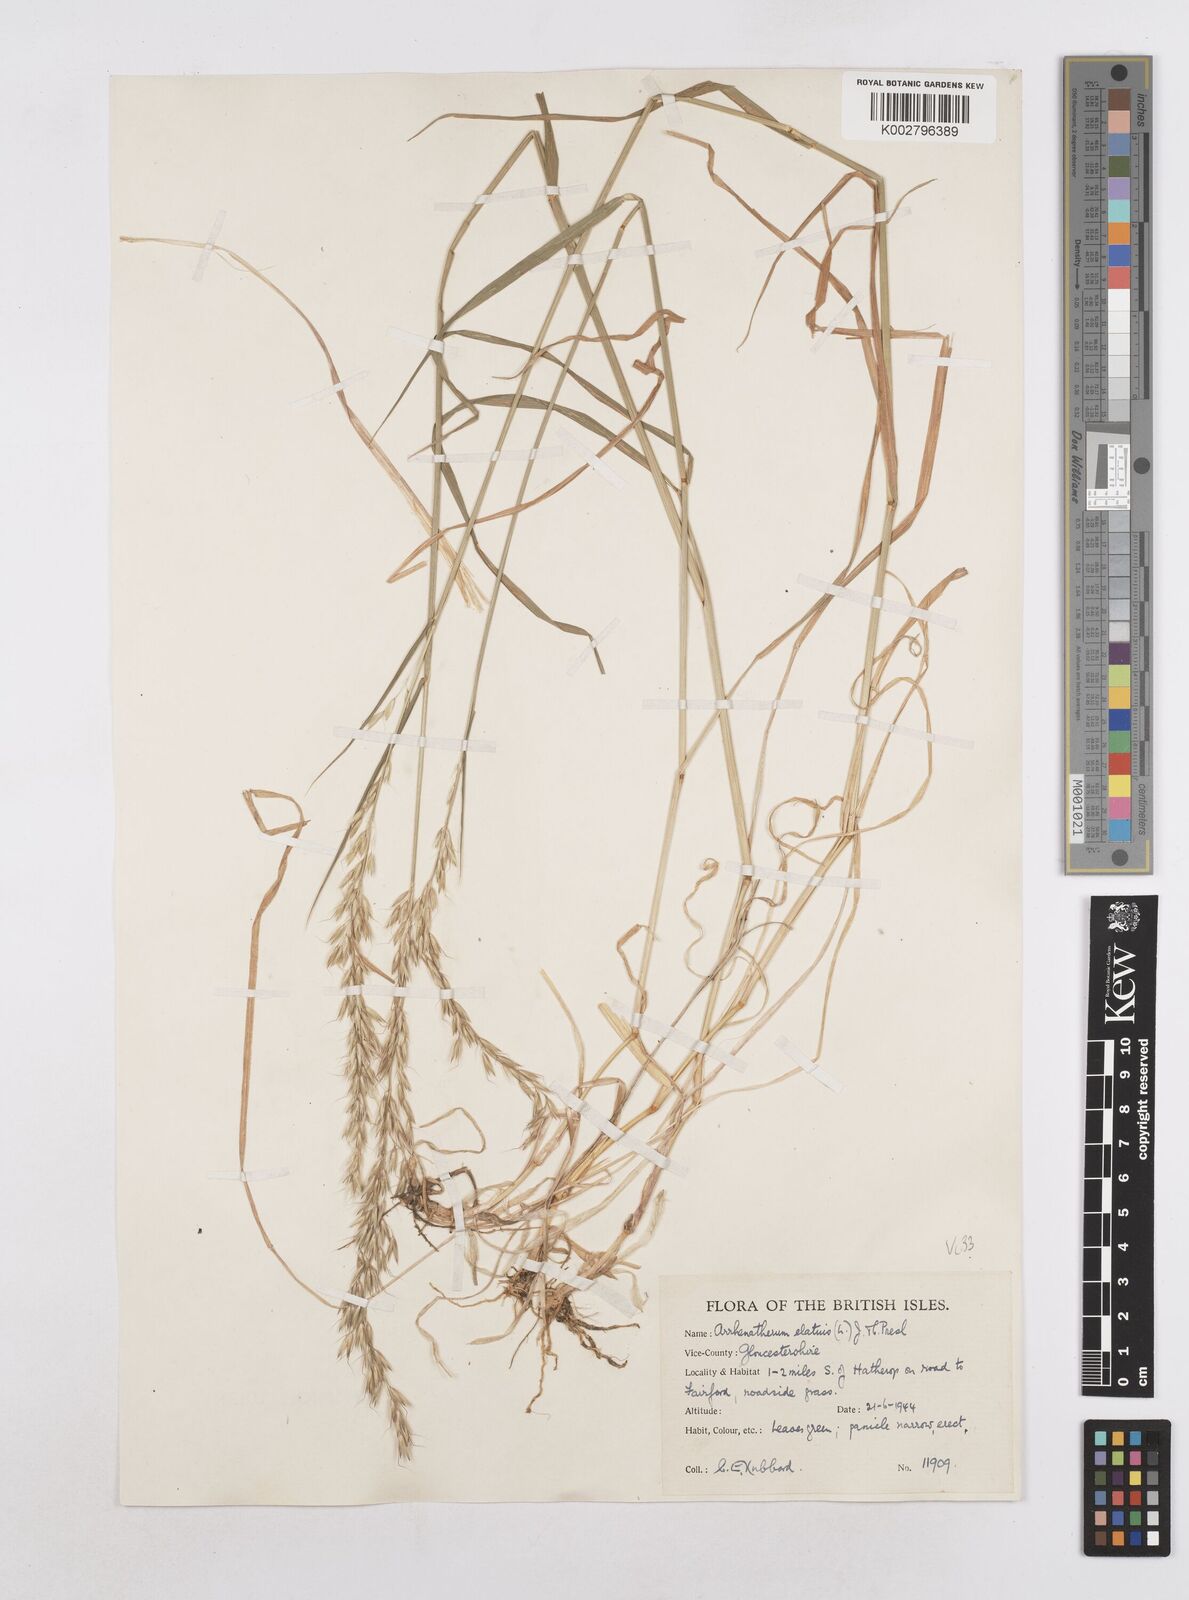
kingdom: Plantae
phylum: Tracheophyta
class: Liliopsida
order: Poales
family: Poaceae
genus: Arrhenatherum
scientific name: Arrhenatherum elatius
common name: Tall oatgrass
